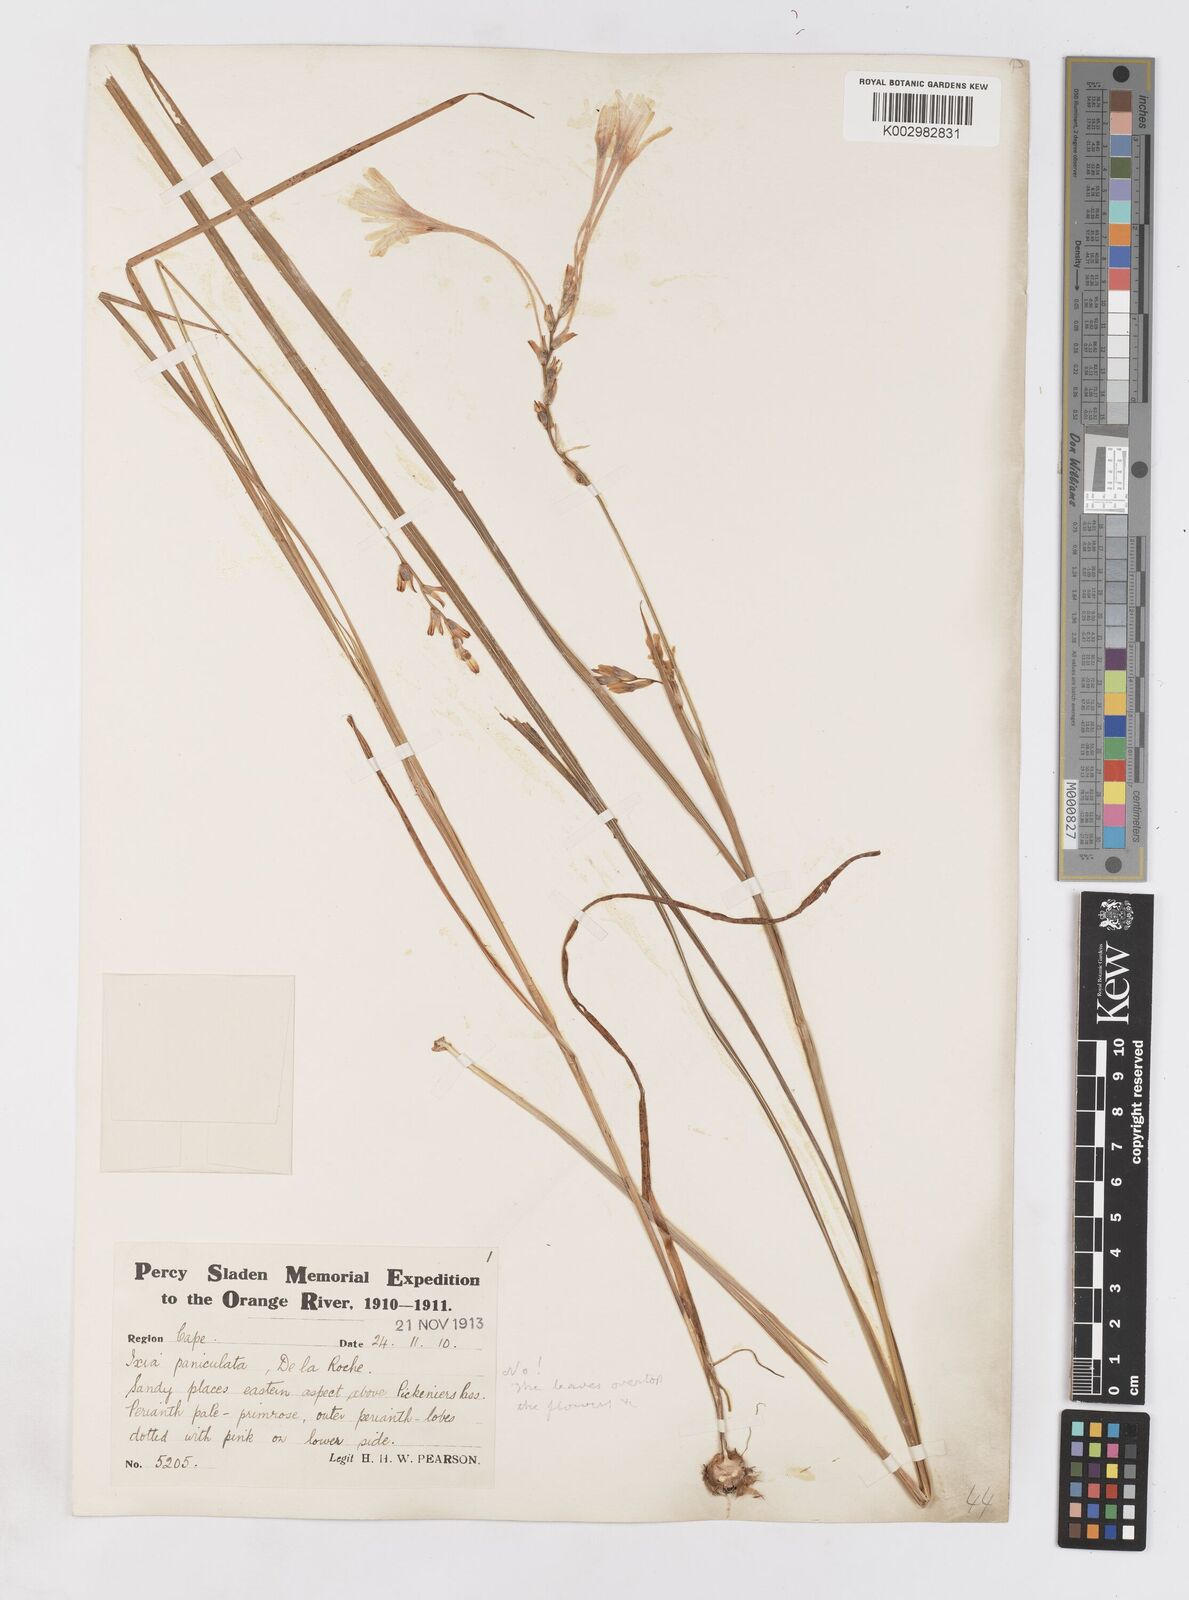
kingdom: Plantae
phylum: Tracheophyta
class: Liliopsida
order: Asparagales
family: Iridaceae
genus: Ixia
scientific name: Ixia paniculata
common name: Tubular corn-lily
